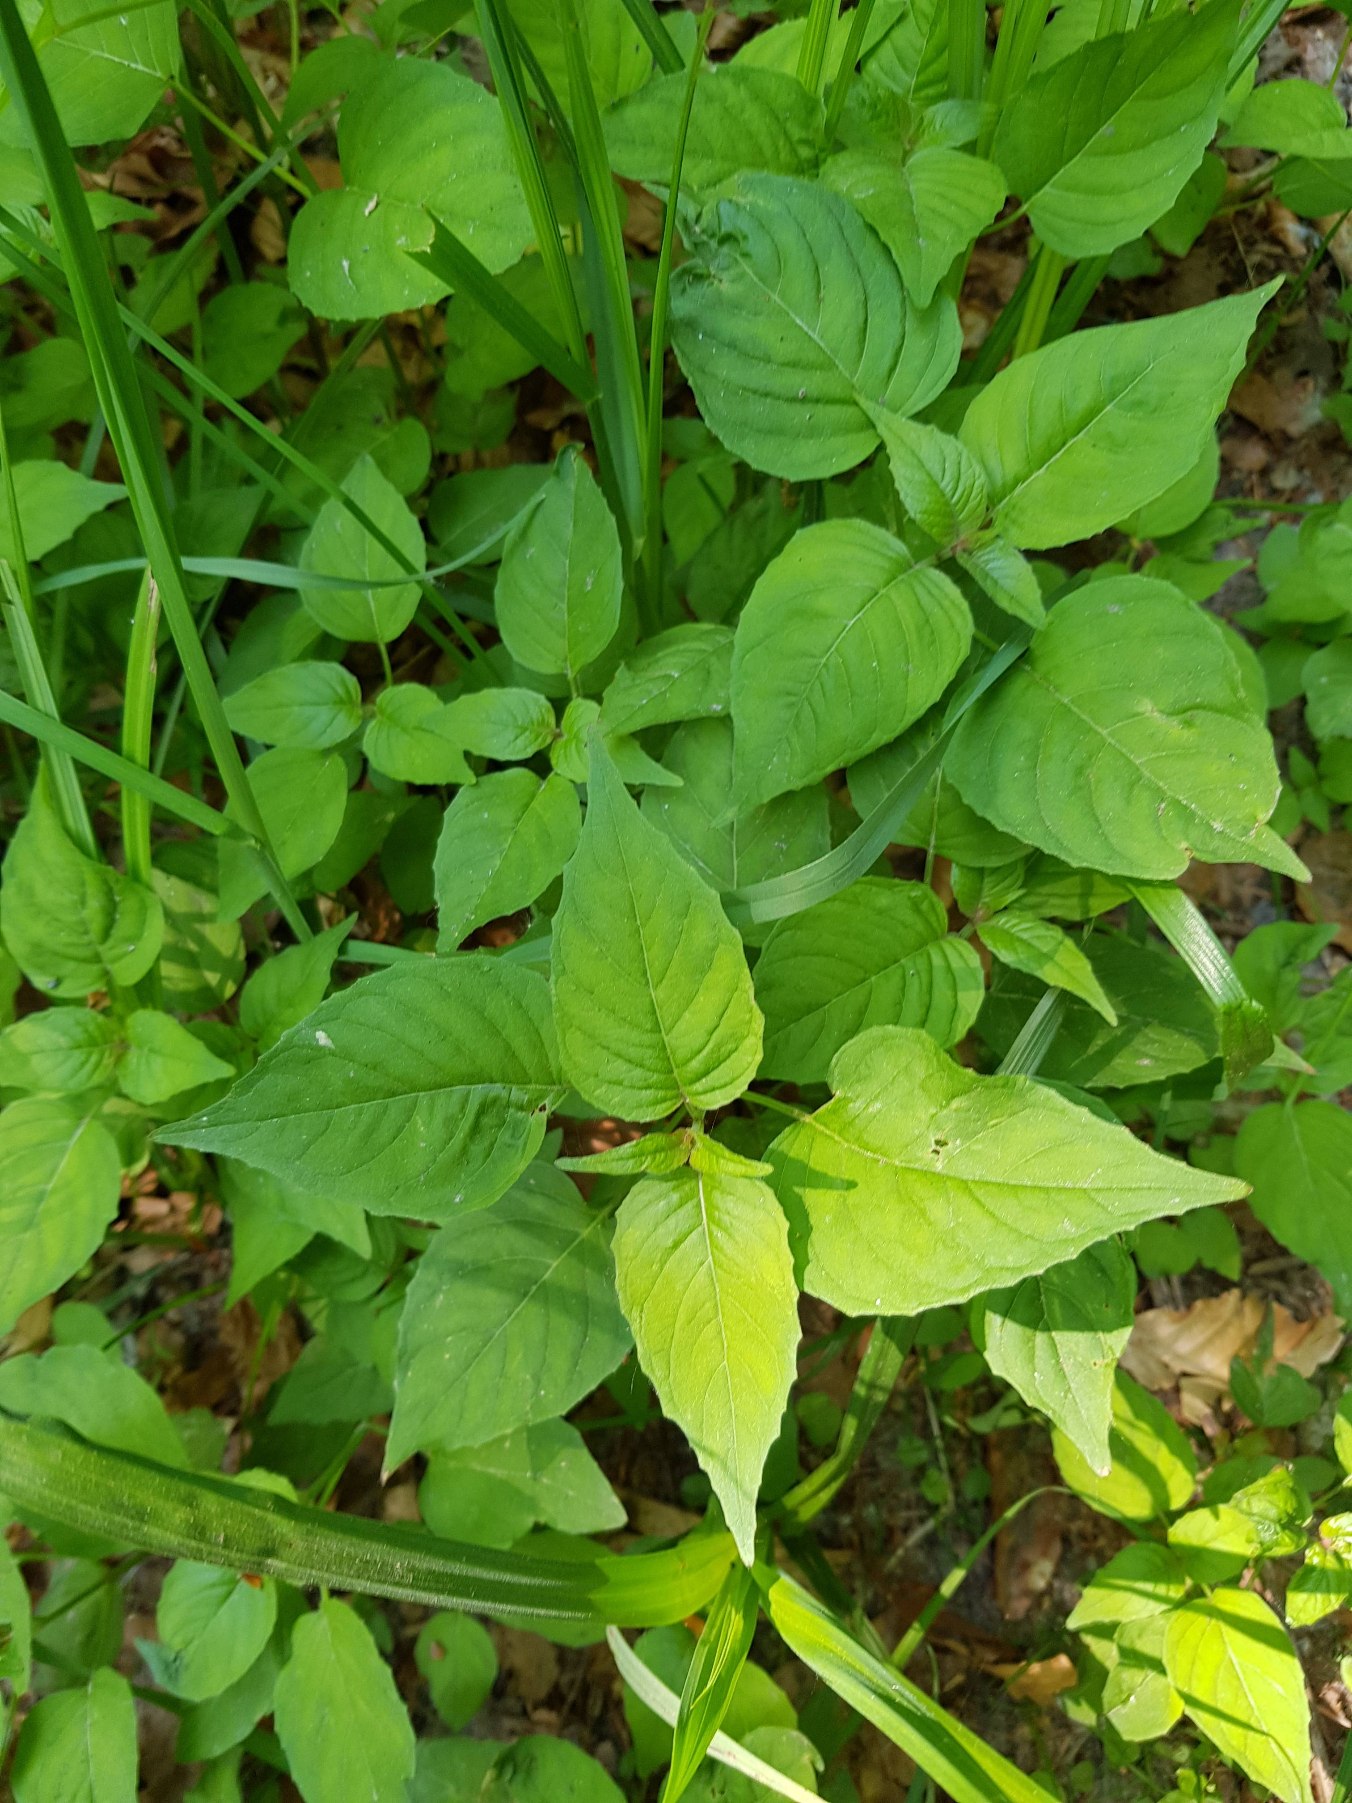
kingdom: Plantae
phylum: Tracheophyta
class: Magnoliopsida
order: Myrtales
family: Onagraceae
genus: Circaea
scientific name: Circaea lutetiana
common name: Dunet steffensurt
